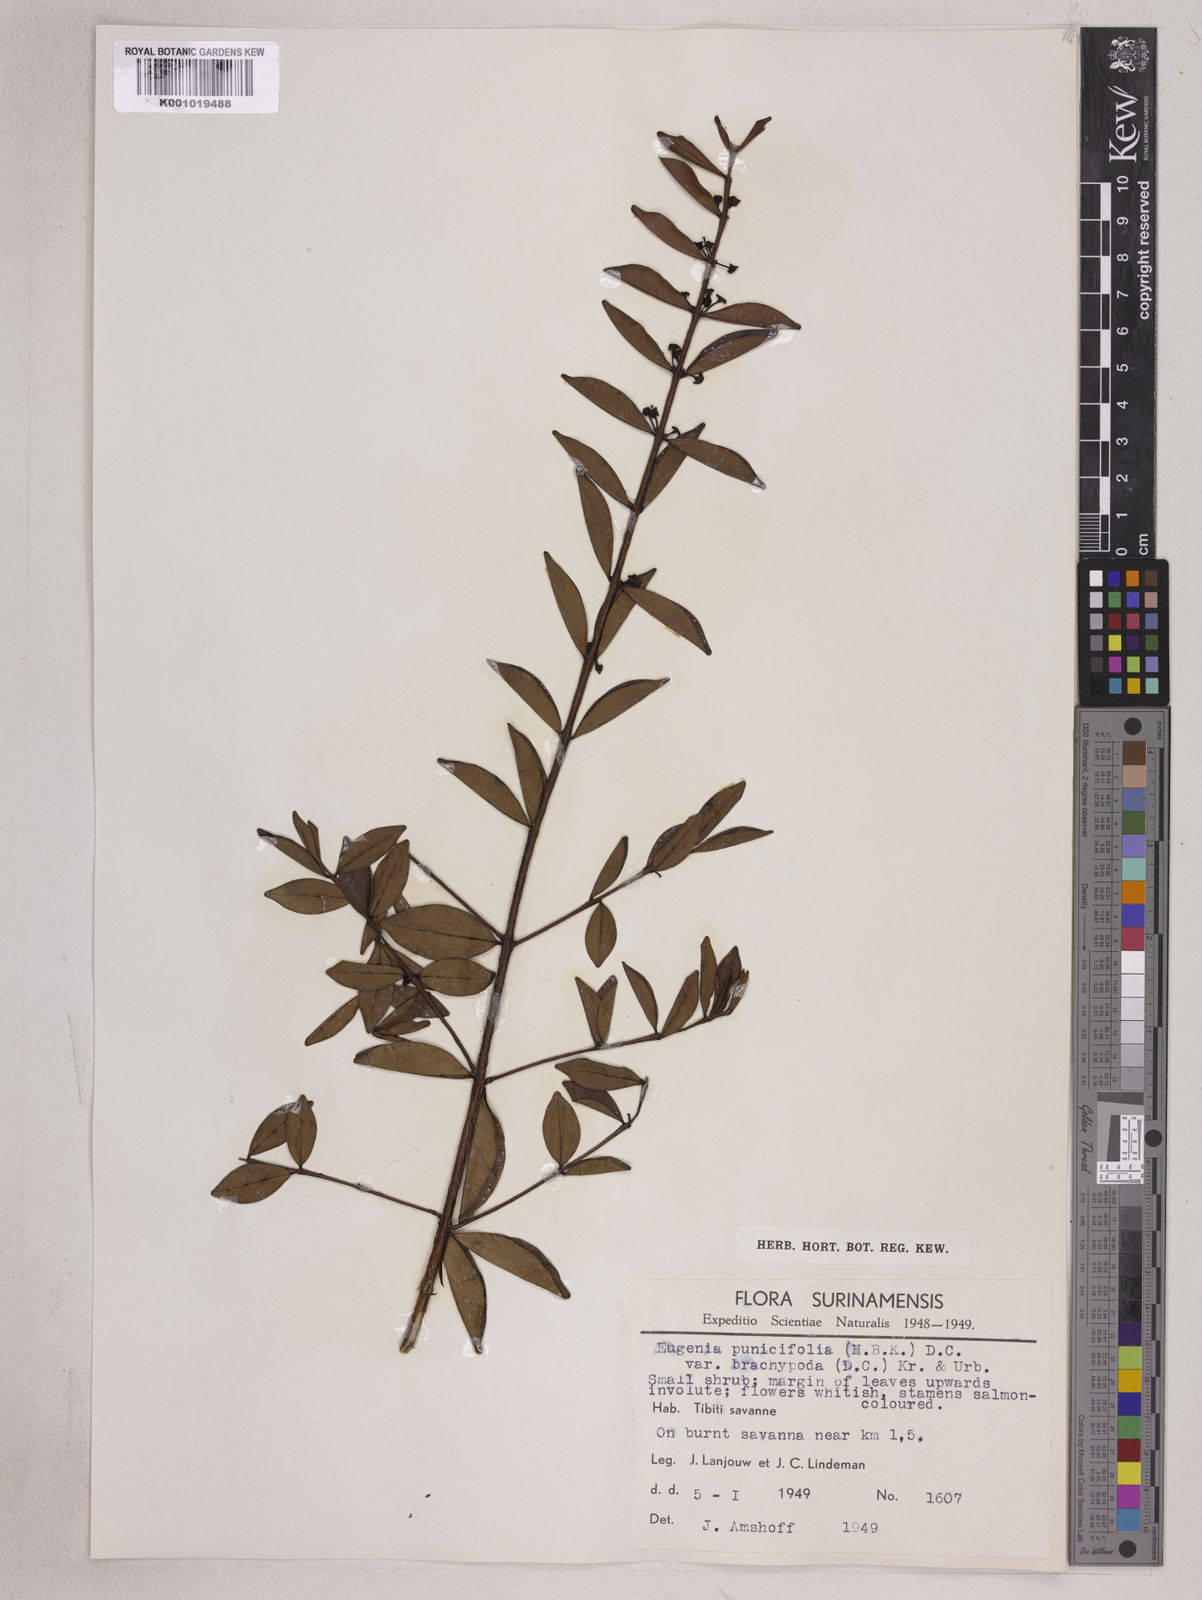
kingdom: Plantae
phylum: Tracheophyta
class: Magnoliopsida
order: Myrtales
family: Myrtaceae
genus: Eugenia
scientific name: Eugenia punicifolia
